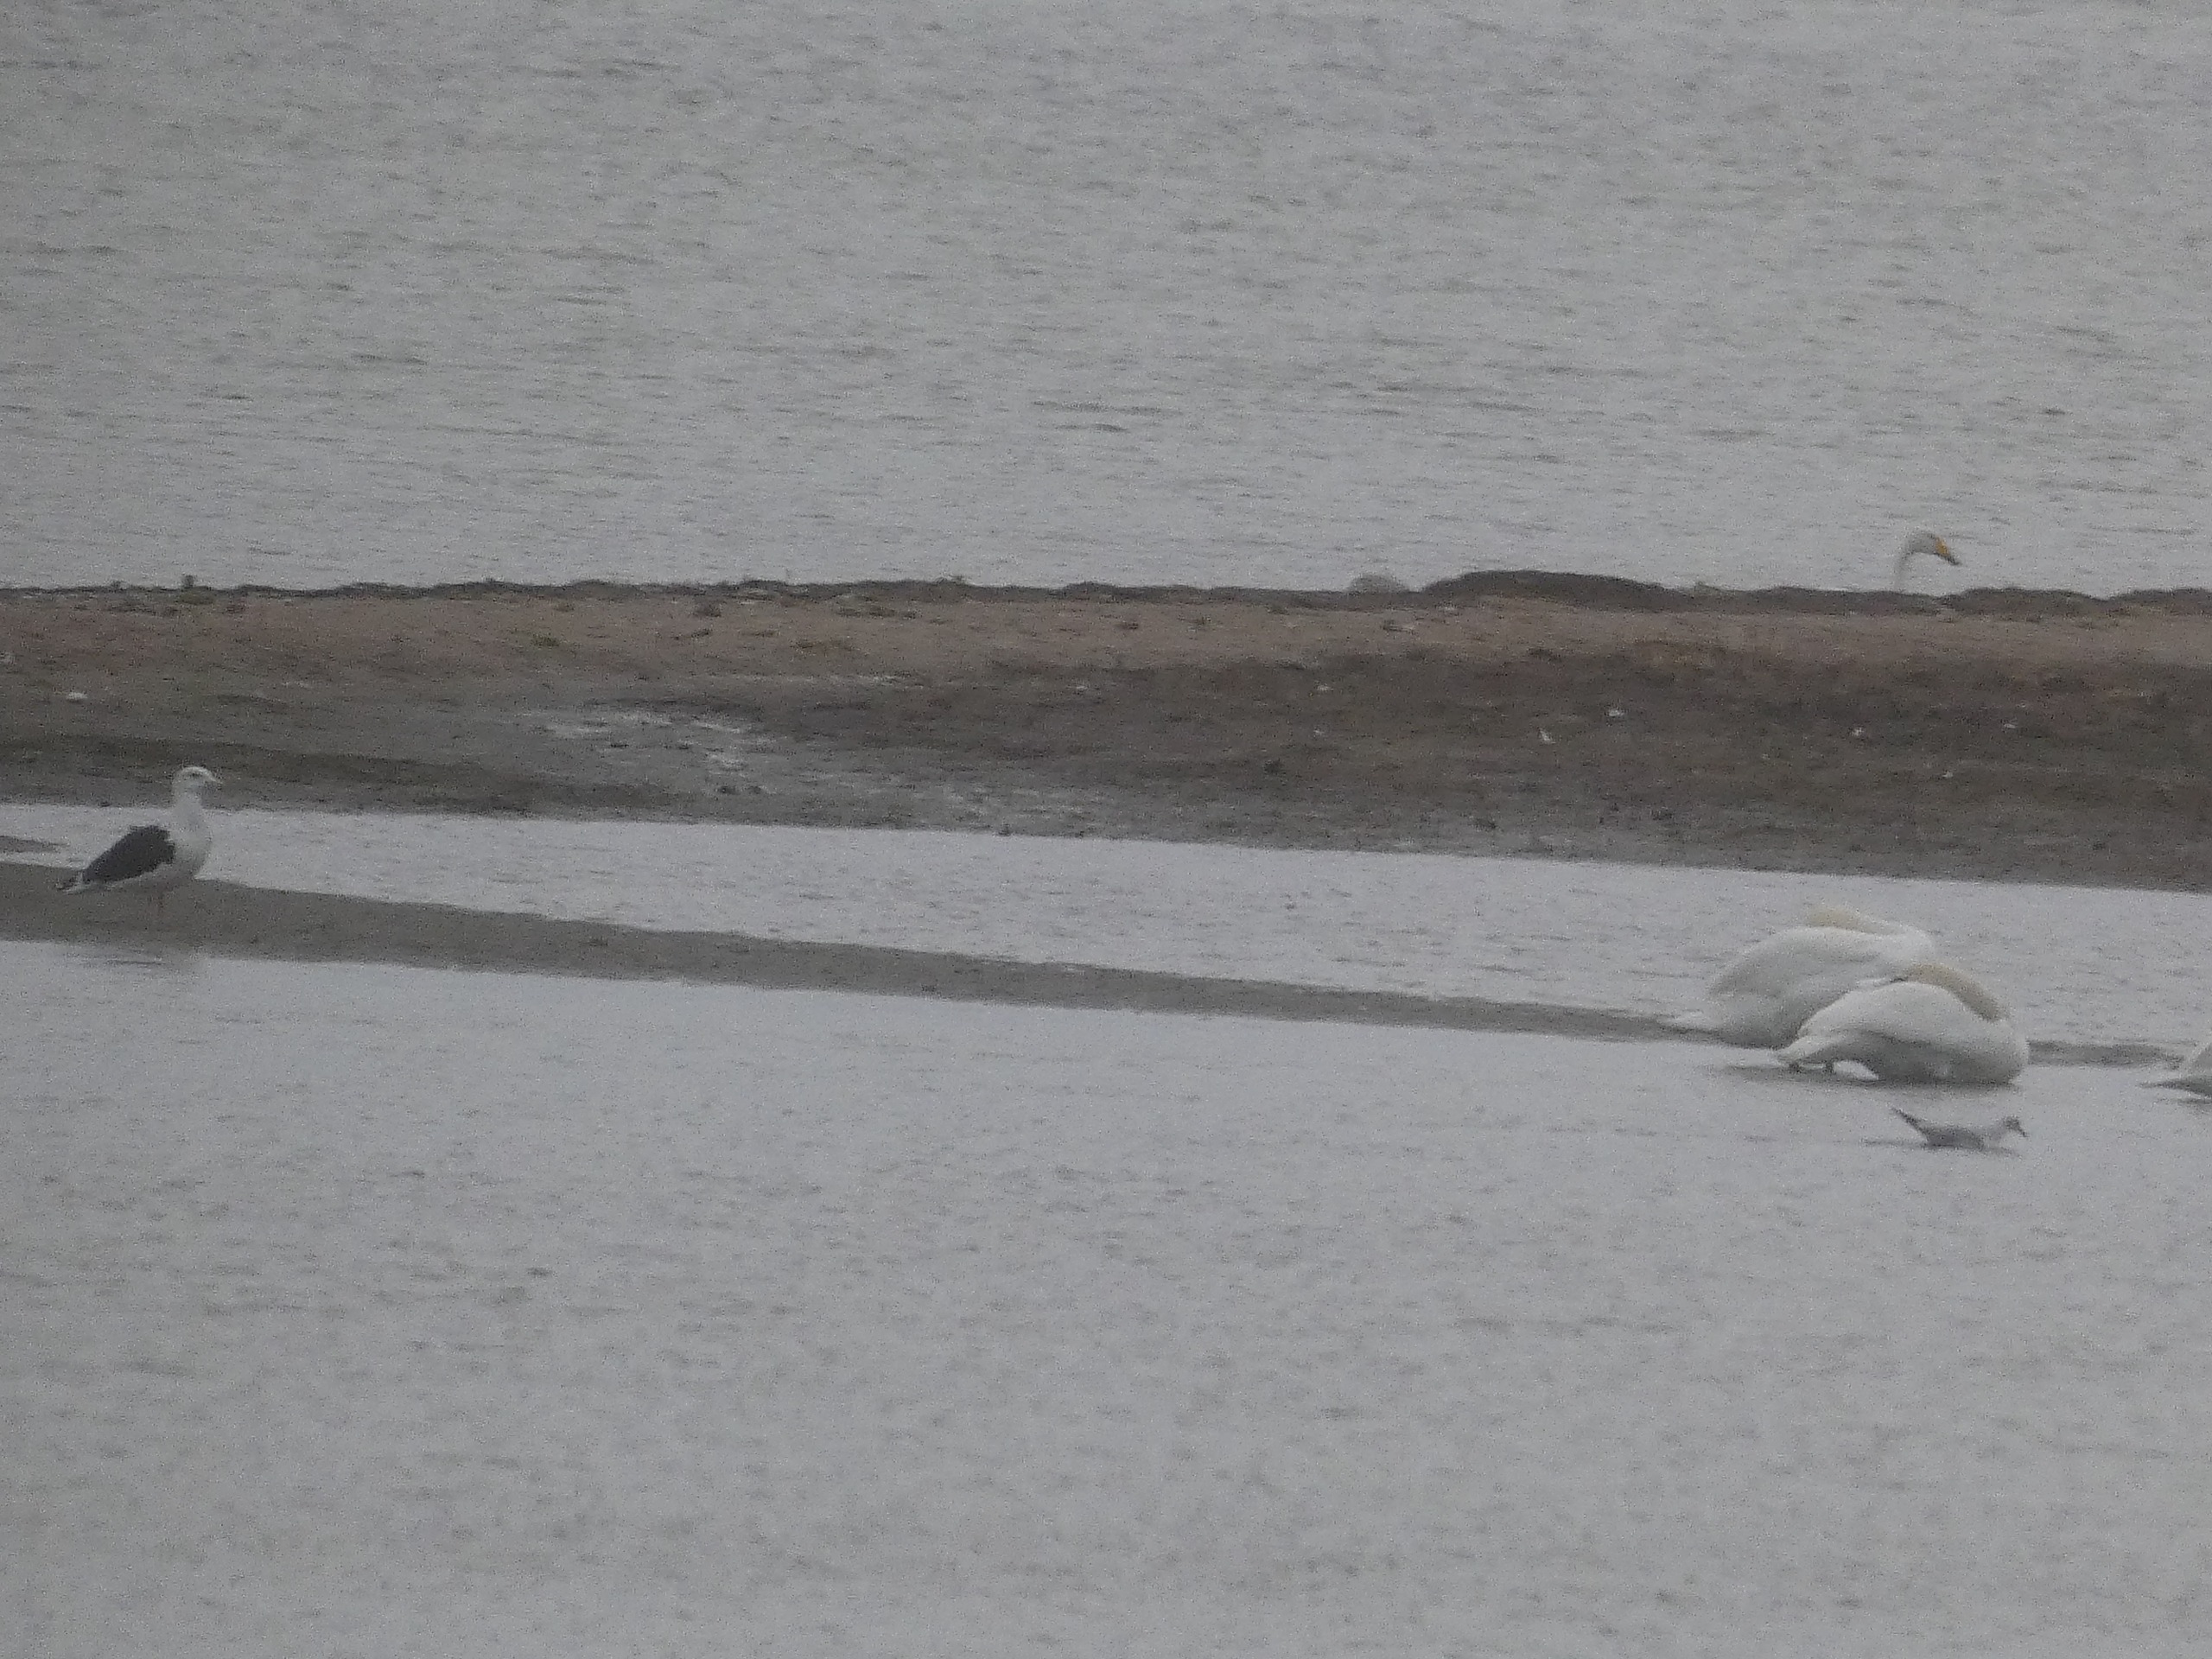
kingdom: Animalia
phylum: Chordata
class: Aves
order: Charadriiformes
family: Laridae
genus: Larus
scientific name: Larus marinus
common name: Svartbag
